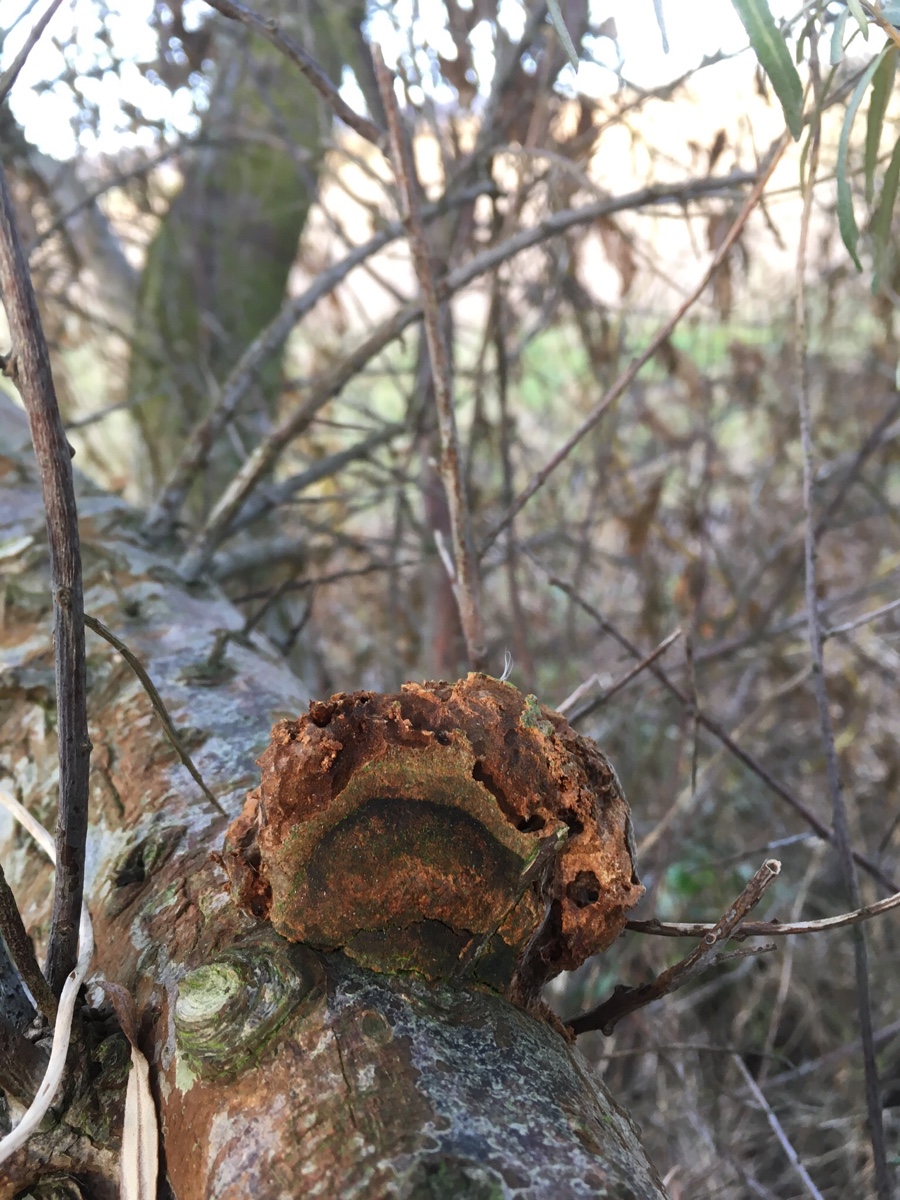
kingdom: Fungi
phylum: Basidiomycota
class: Agaricomycetes
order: Hymenochaetales
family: Hymenochaetaceae
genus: Fomitiporia
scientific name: Fomitiporia hippophaeicola
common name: havtorn-ildporesvamp
